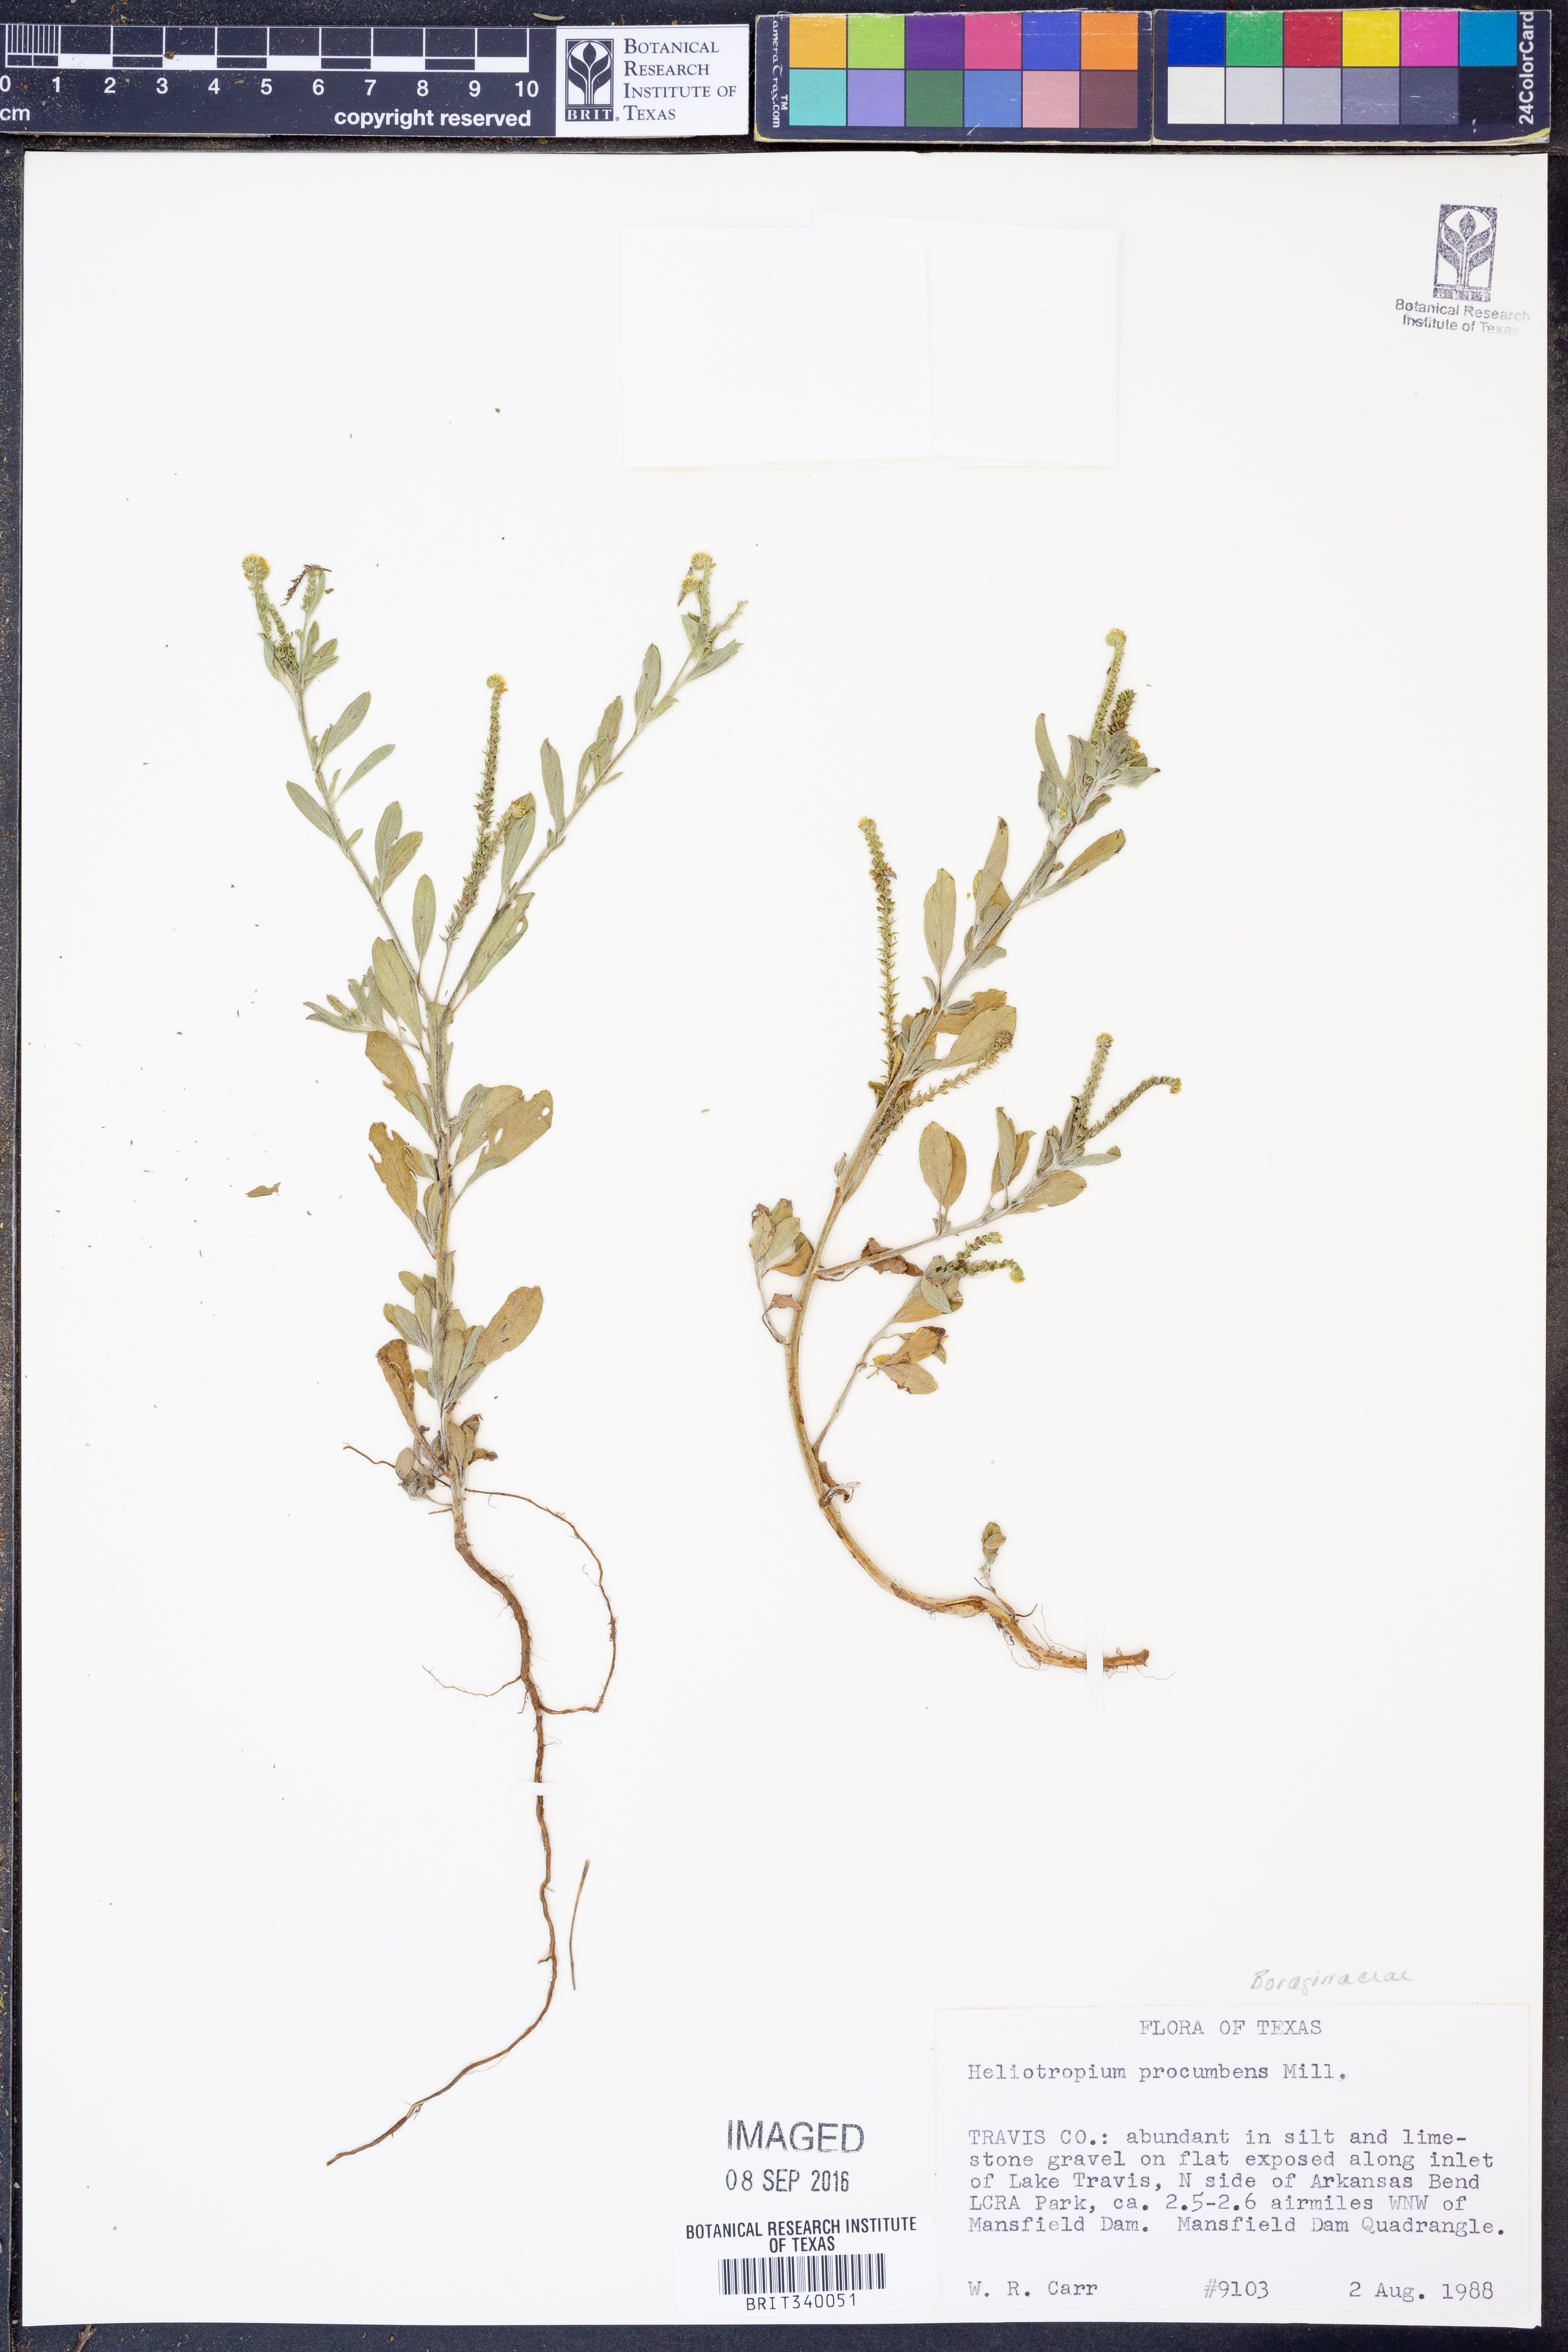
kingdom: Plantae
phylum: Tracheophyta
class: Magnoliopsida
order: Boraginales
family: Heliotropiaceae
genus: Euploca
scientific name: Euploca procumbens
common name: Fourspike heliotrope
